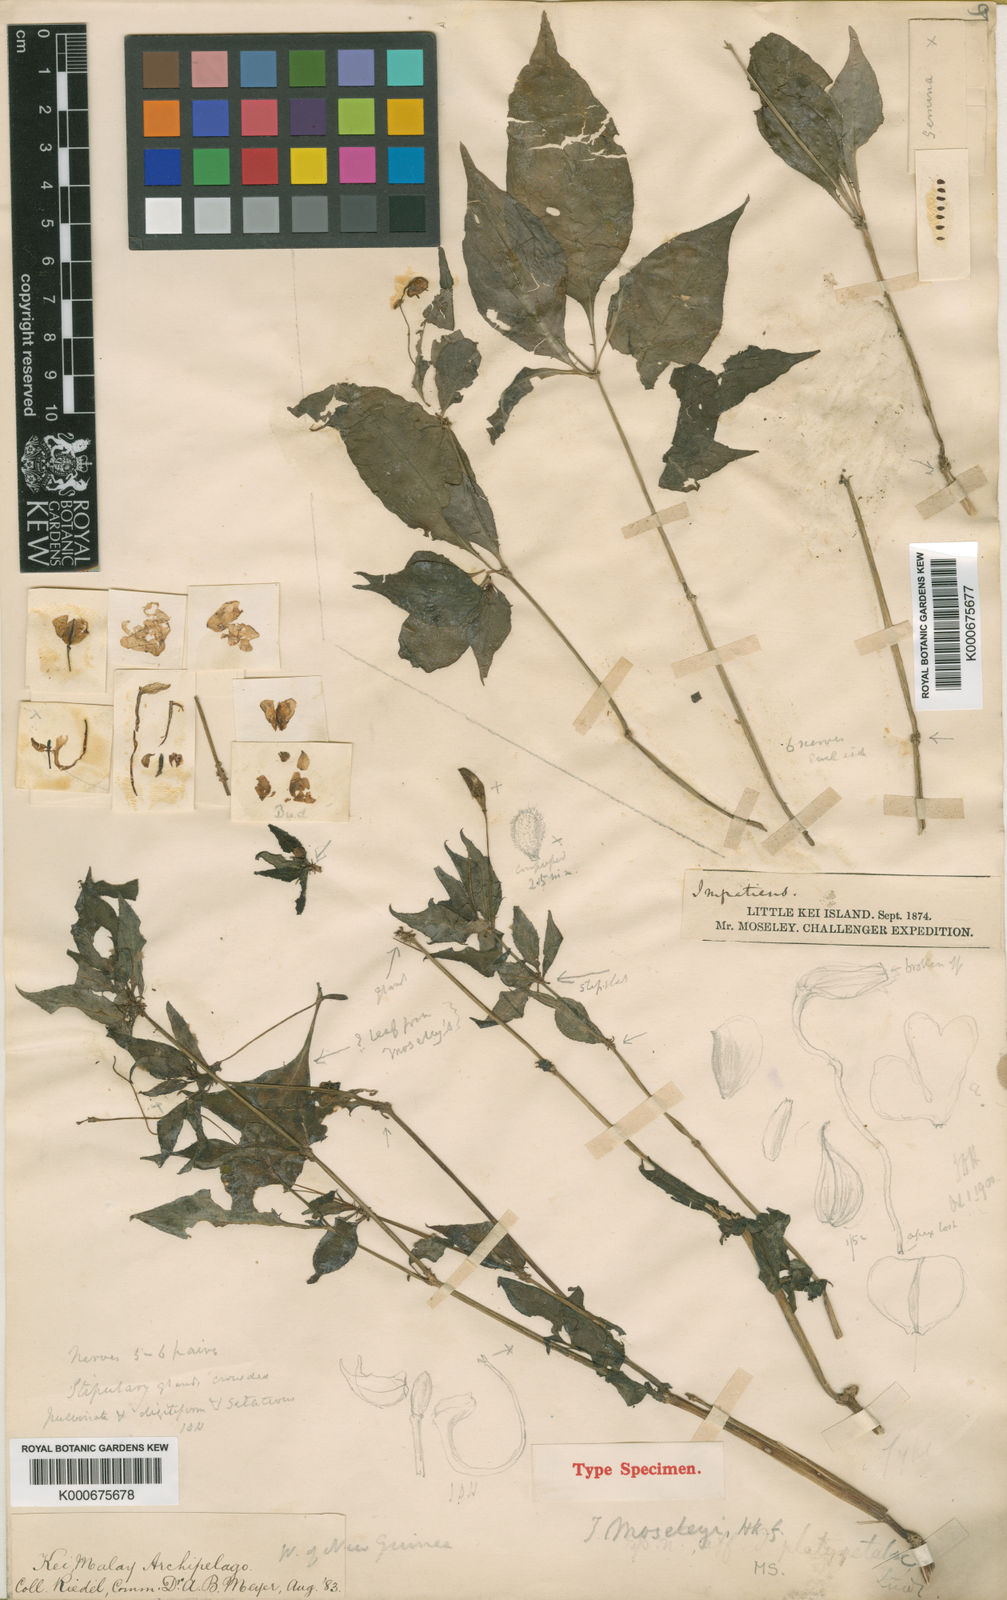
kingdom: Plantae
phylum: Tracheophyta
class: Magnoliopsida
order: Ericales
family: Balsaminaceae
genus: Impatiens
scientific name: Impatiens
